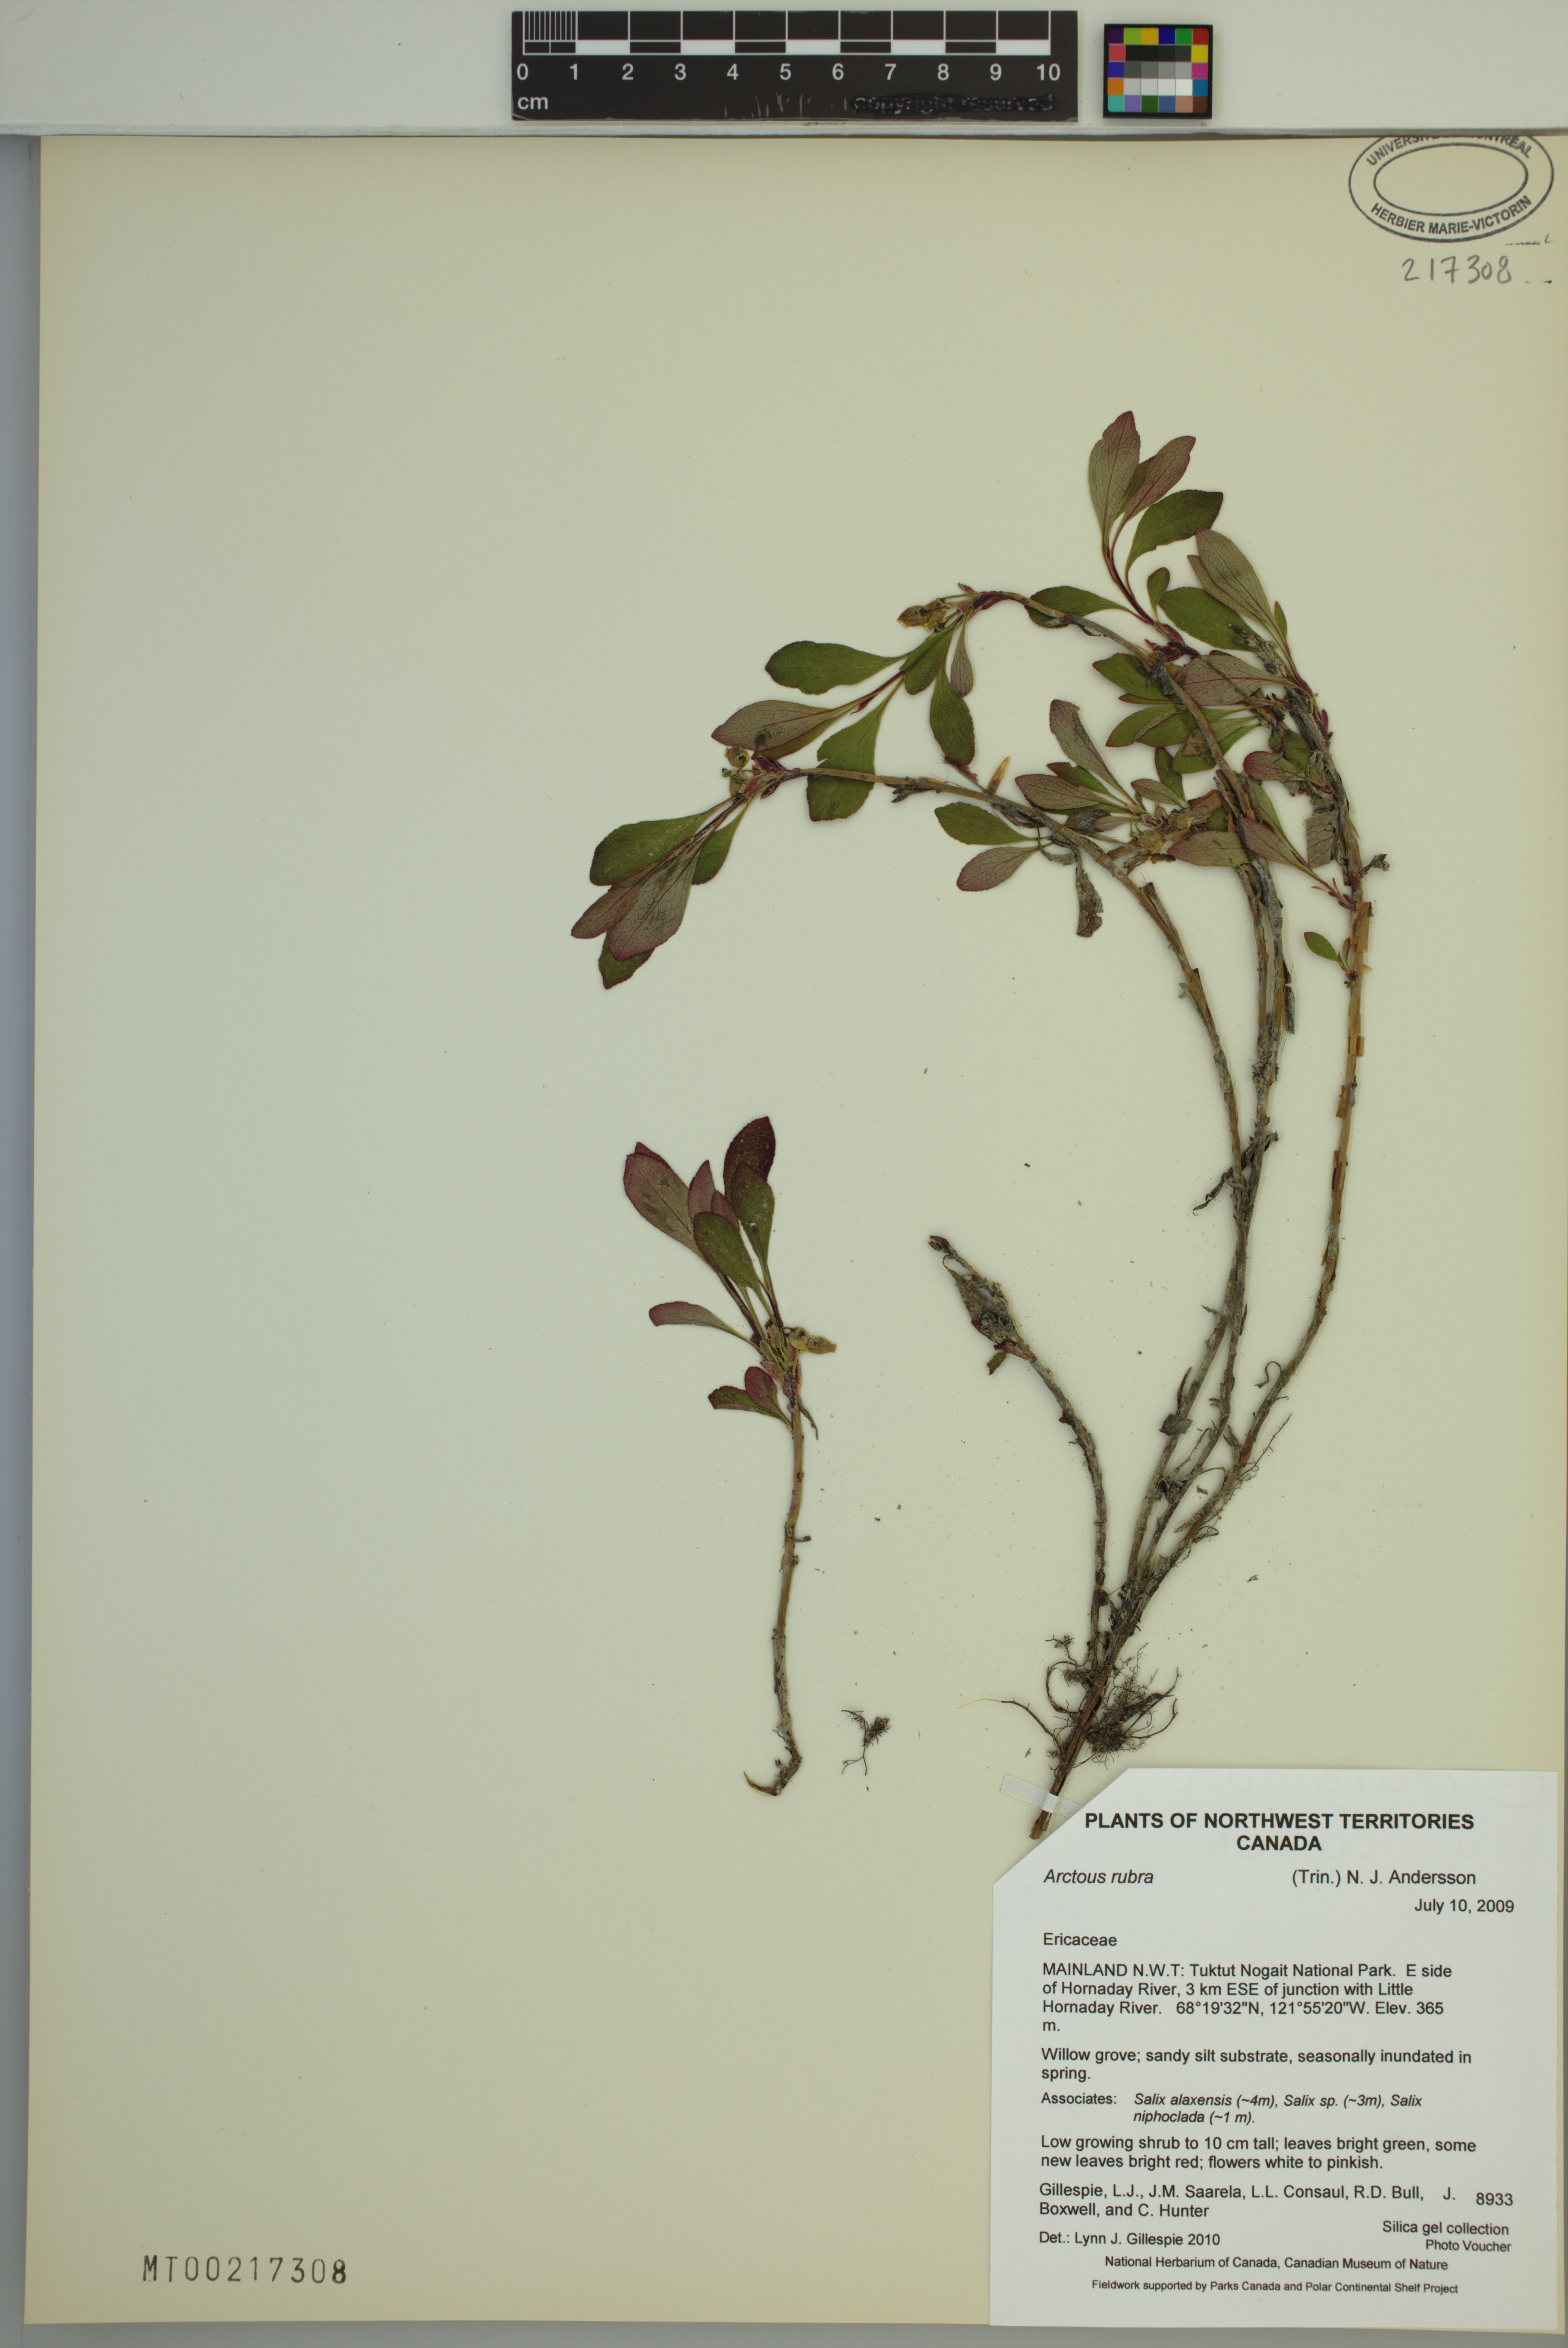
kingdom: Plantae
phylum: Tracheophyta
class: Magnoliopsida
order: Ericales
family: Ericaceae
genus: Arctostaphylos
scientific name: Arctostaphylos rubra
